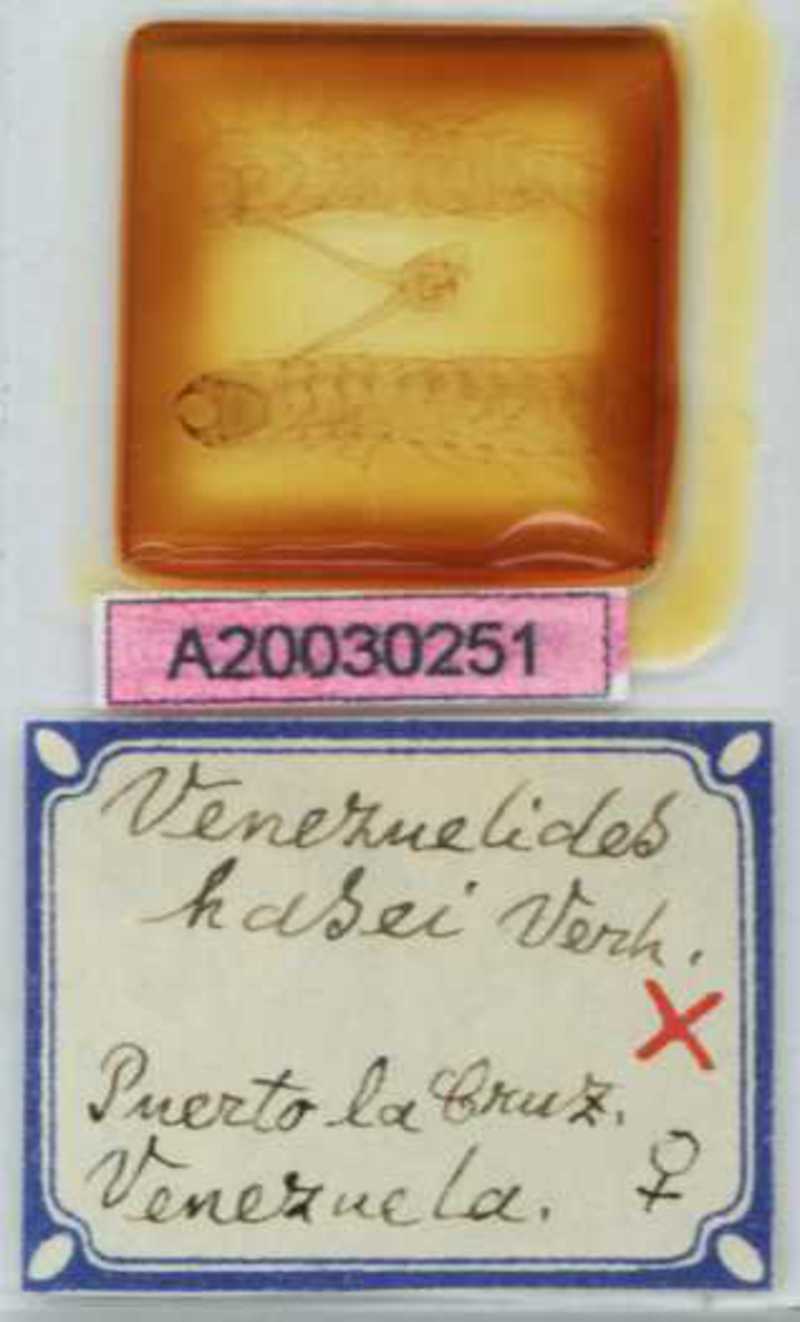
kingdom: Animalia
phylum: Arthropoda
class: Chilopoda
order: Geophilomorpha
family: Oryidae
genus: Venezuelides
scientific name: Venezuelides
